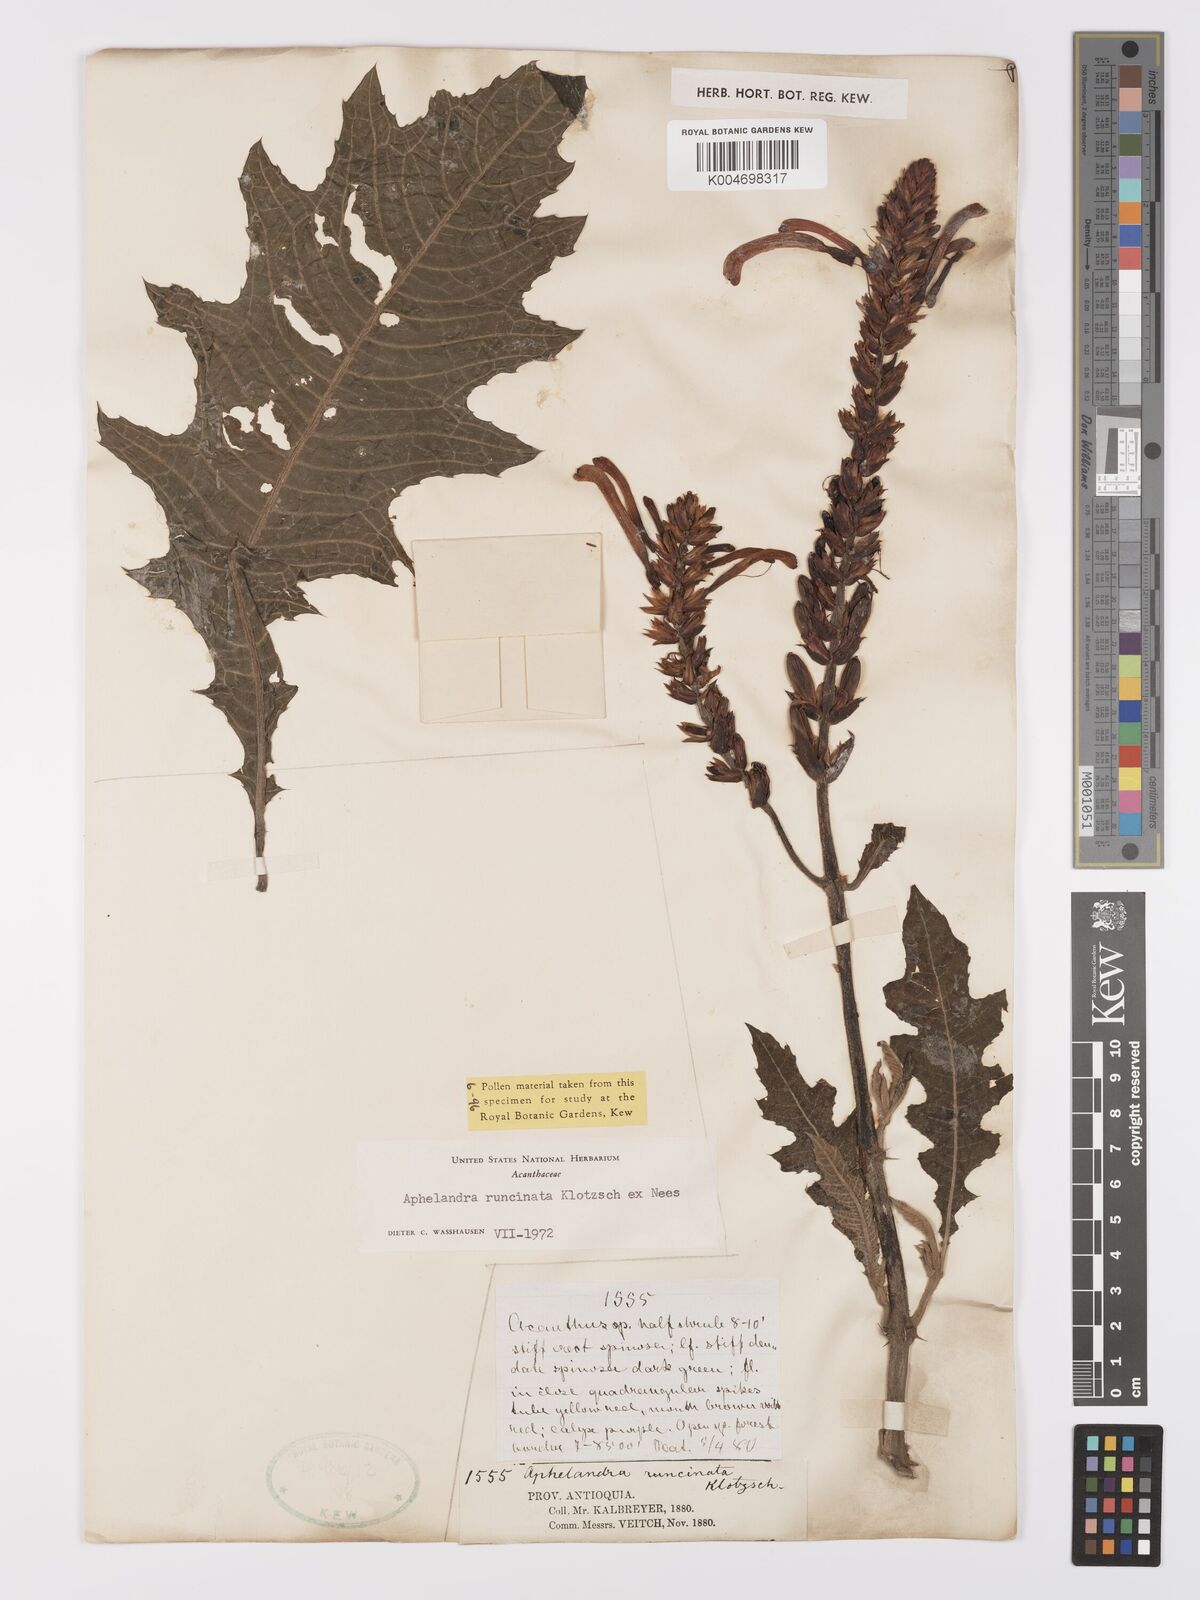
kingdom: Plantae
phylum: Tracheophyta
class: Magnoliopsida
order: Lamiales
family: Acanthaceae
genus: Aphelandra
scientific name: Aphelandra runcinata
